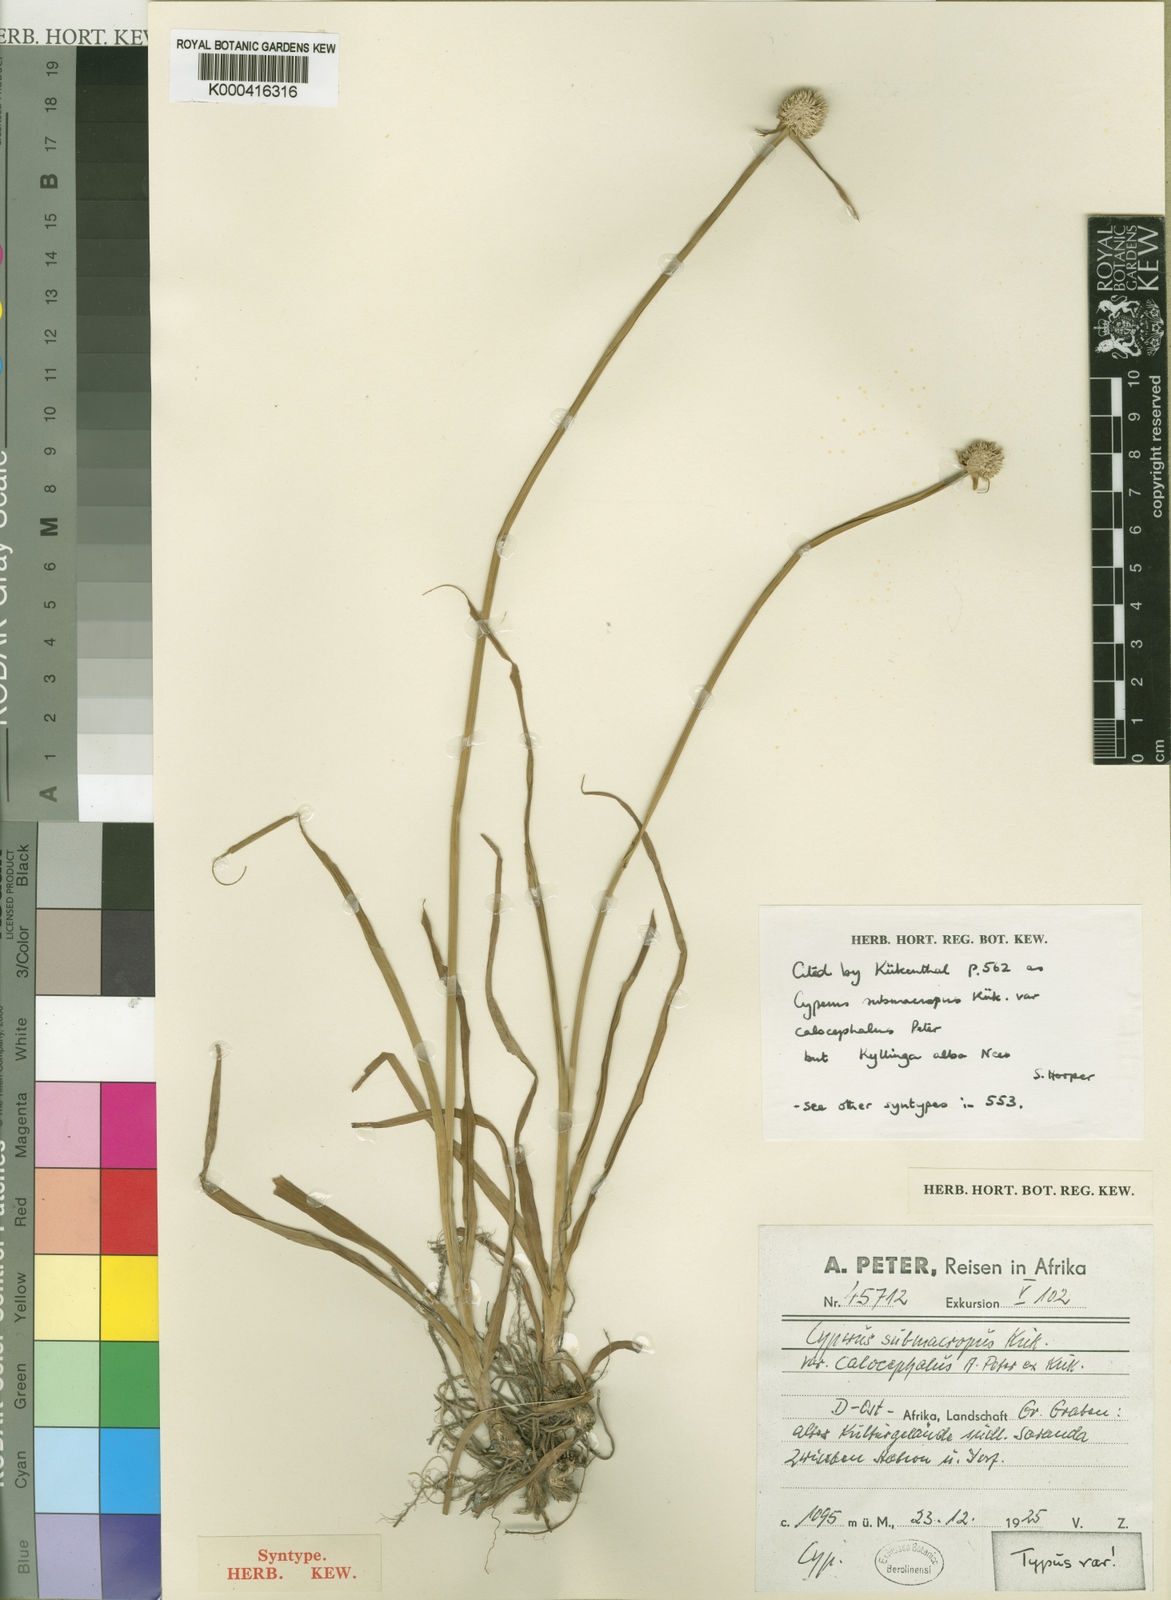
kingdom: Plantae
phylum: Tracheophyta
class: Liliopsida
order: Poales
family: Cyperaceae
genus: Cyperus
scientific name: Cyperus alatus
